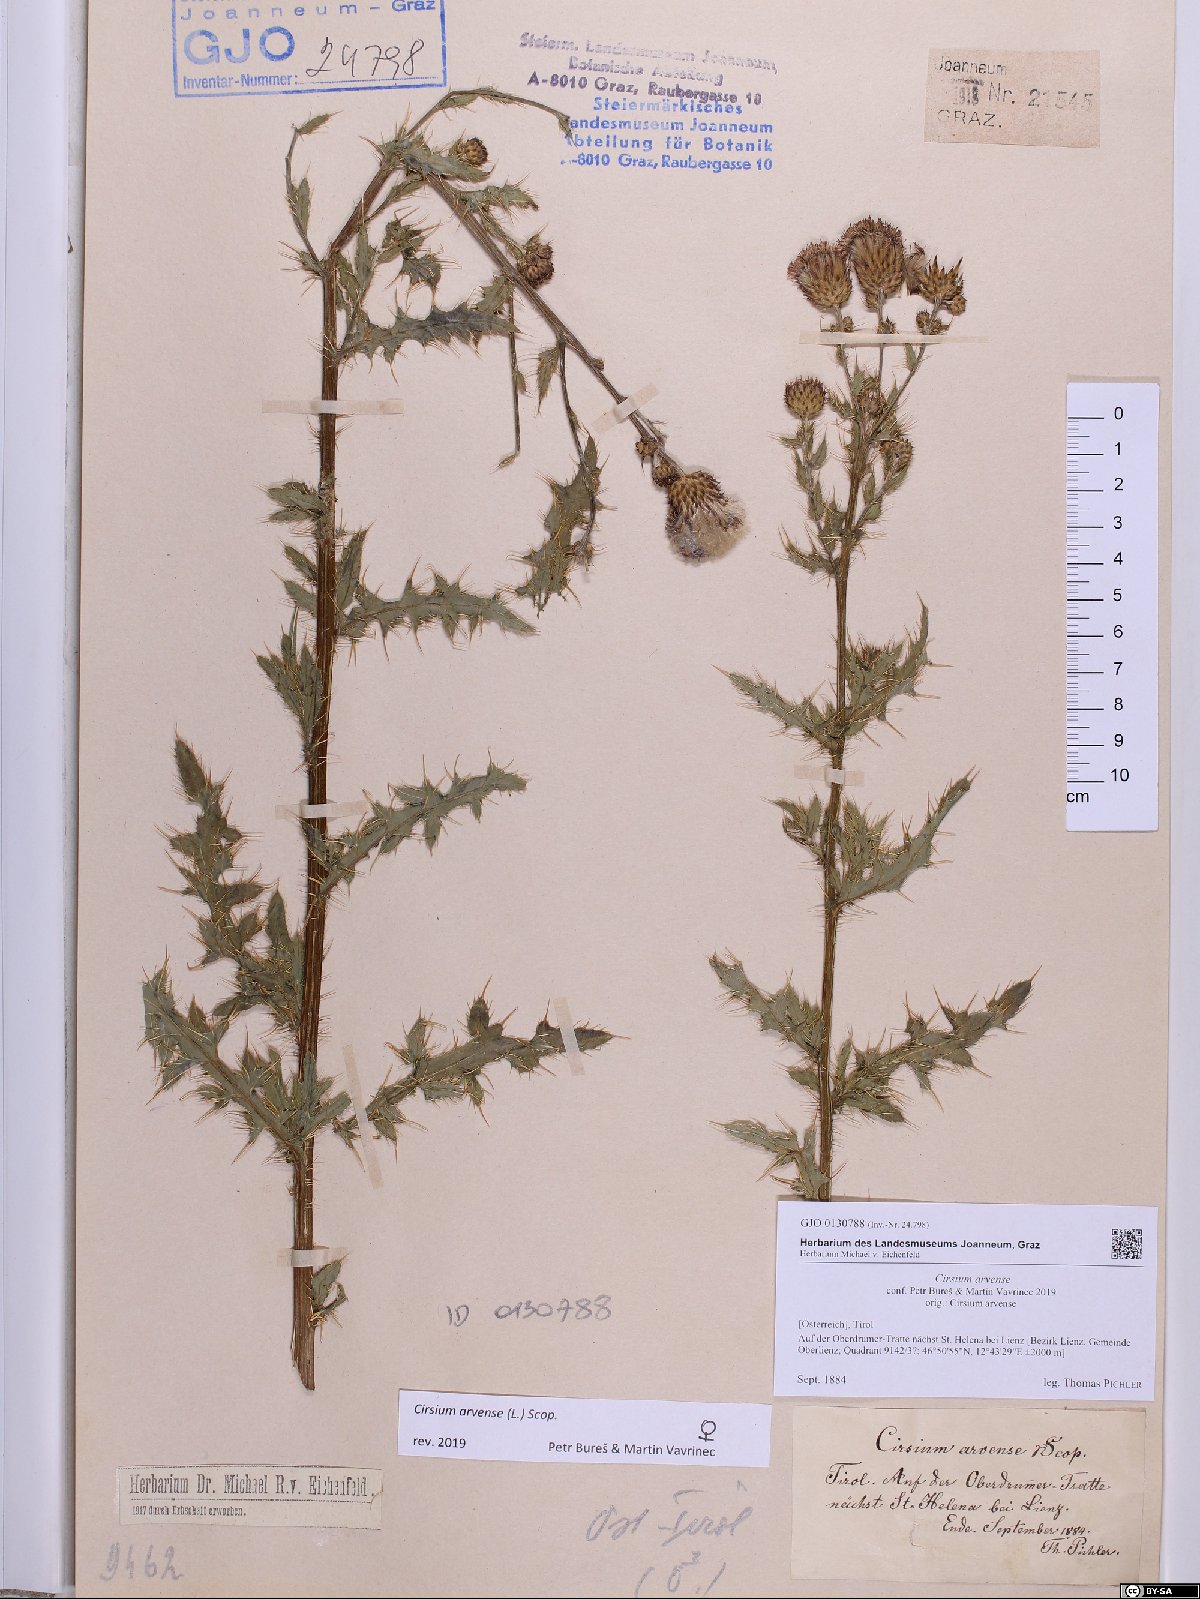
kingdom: Plantae
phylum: Tracheophyta
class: Magnoliopsida
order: Asterales
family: Asteraceae
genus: Cirsium
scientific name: Cirsium arvense
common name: Creeping thistle
